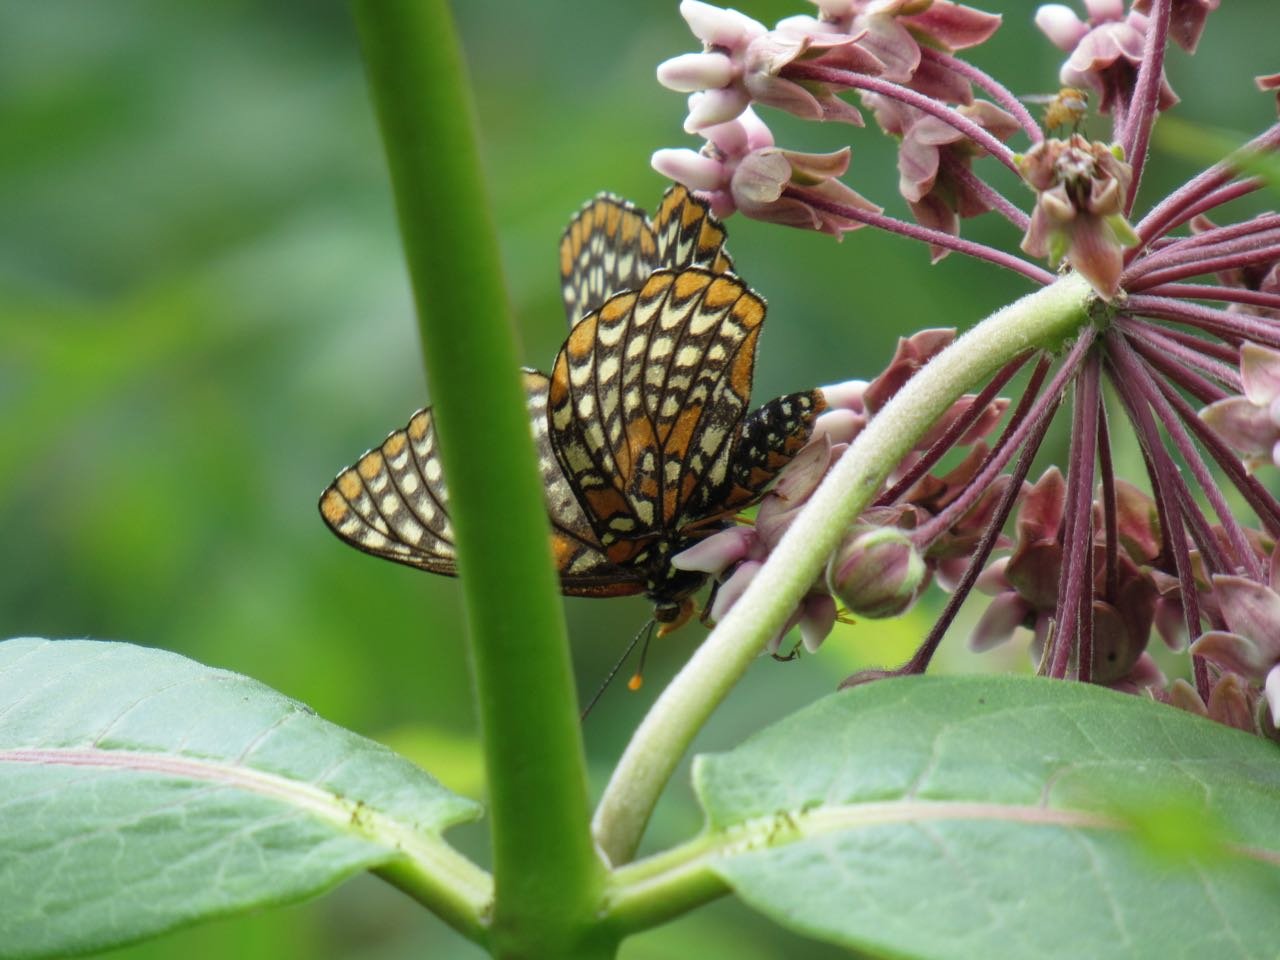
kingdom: Animalia
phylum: Arthropoda
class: Insecta
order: Lepidoptera
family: Nymphalidae
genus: Euphydryas
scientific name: Euphydryas phaeton
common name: Baltimore Checkerspot
